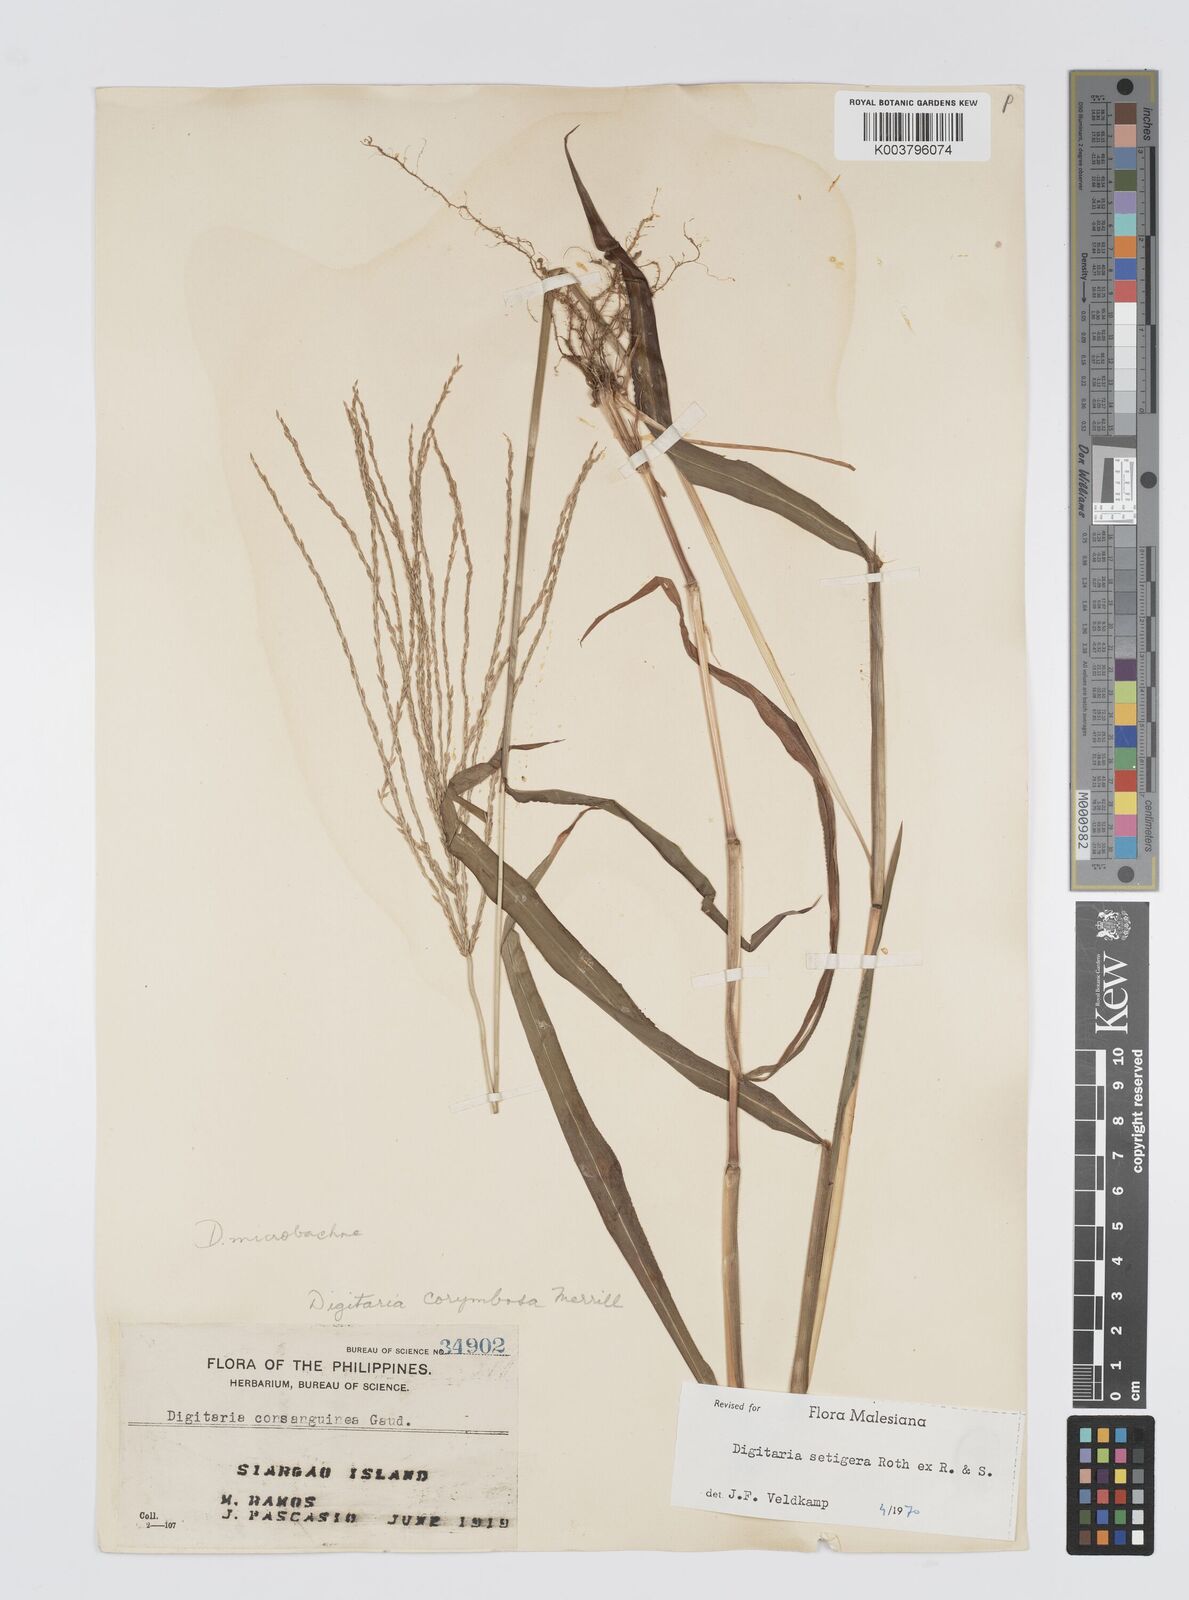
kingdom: Plantae
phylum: Tracheophyta
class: Liliopsida
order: Poales
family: Poaceae
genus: Digitaria
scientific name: Digitaria setigera
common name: East indian crabgrass
